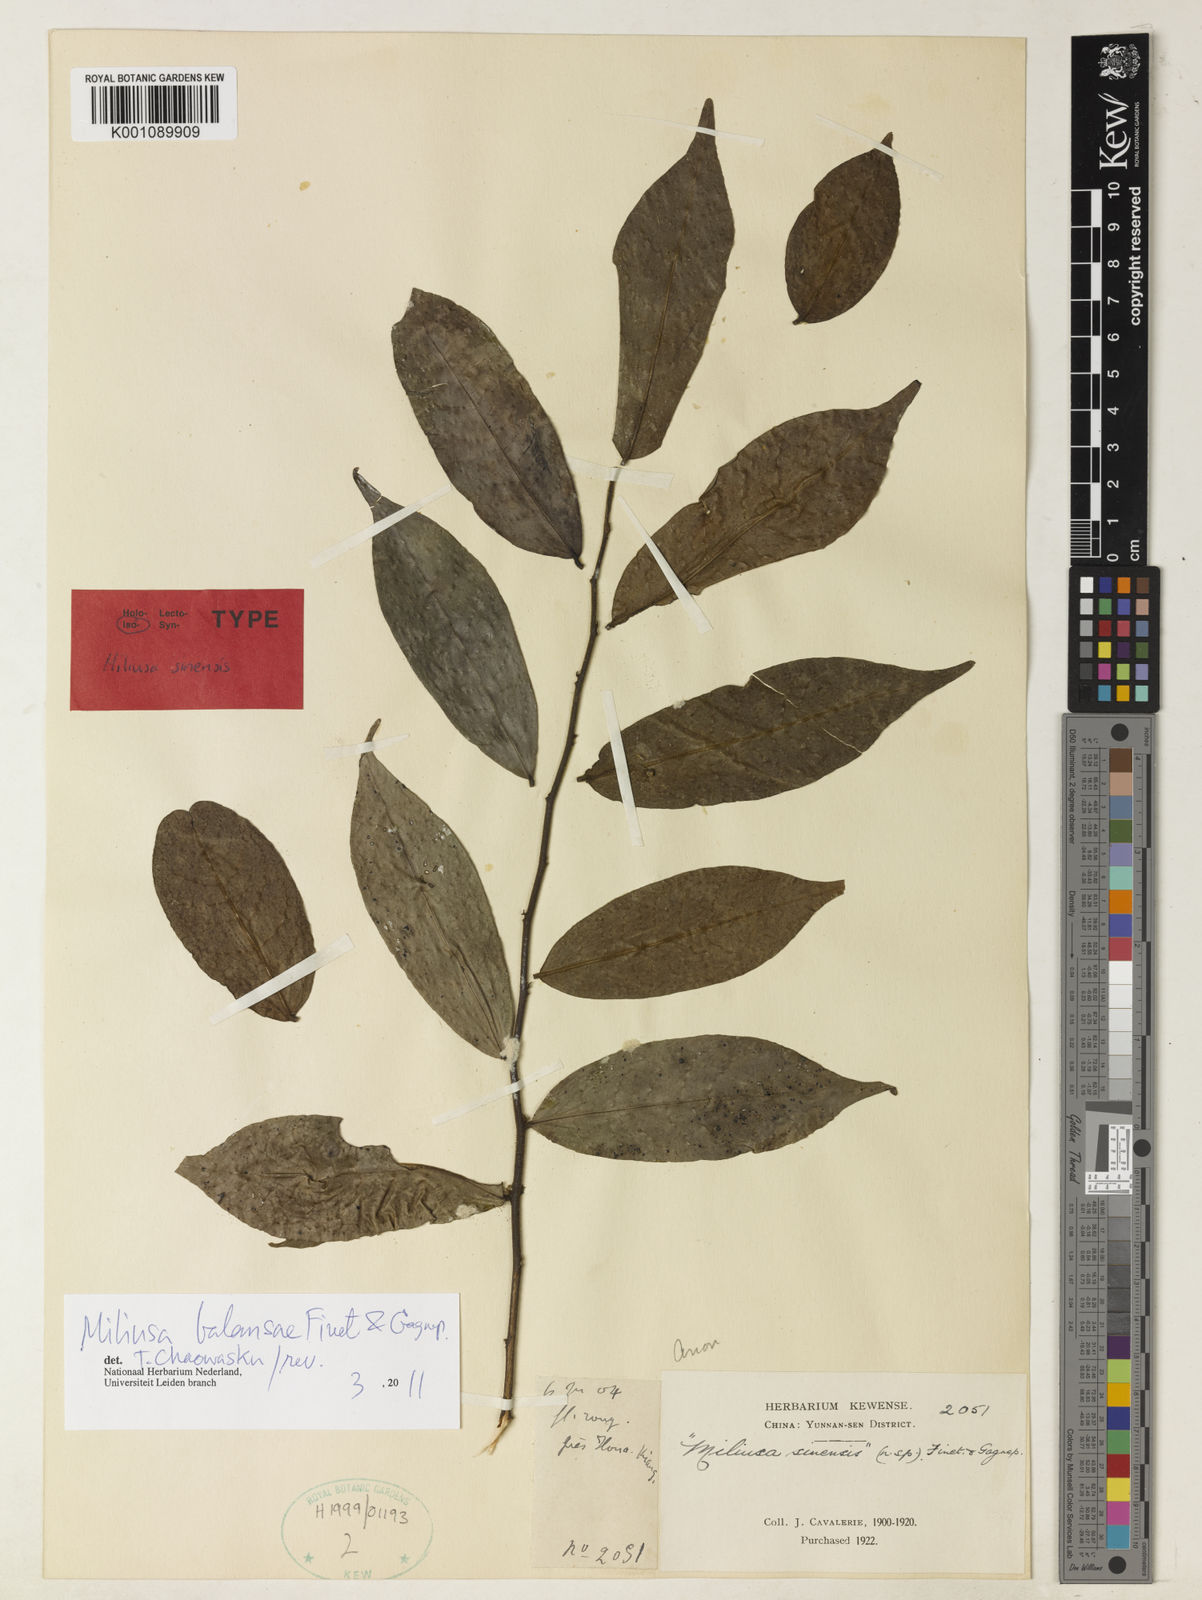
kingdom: Plantae
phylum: Tracheophyta
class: Magnoliopsida
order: Magnoliales
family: Annonaceae
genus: Miliusa
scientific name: Miliusa sinensis
